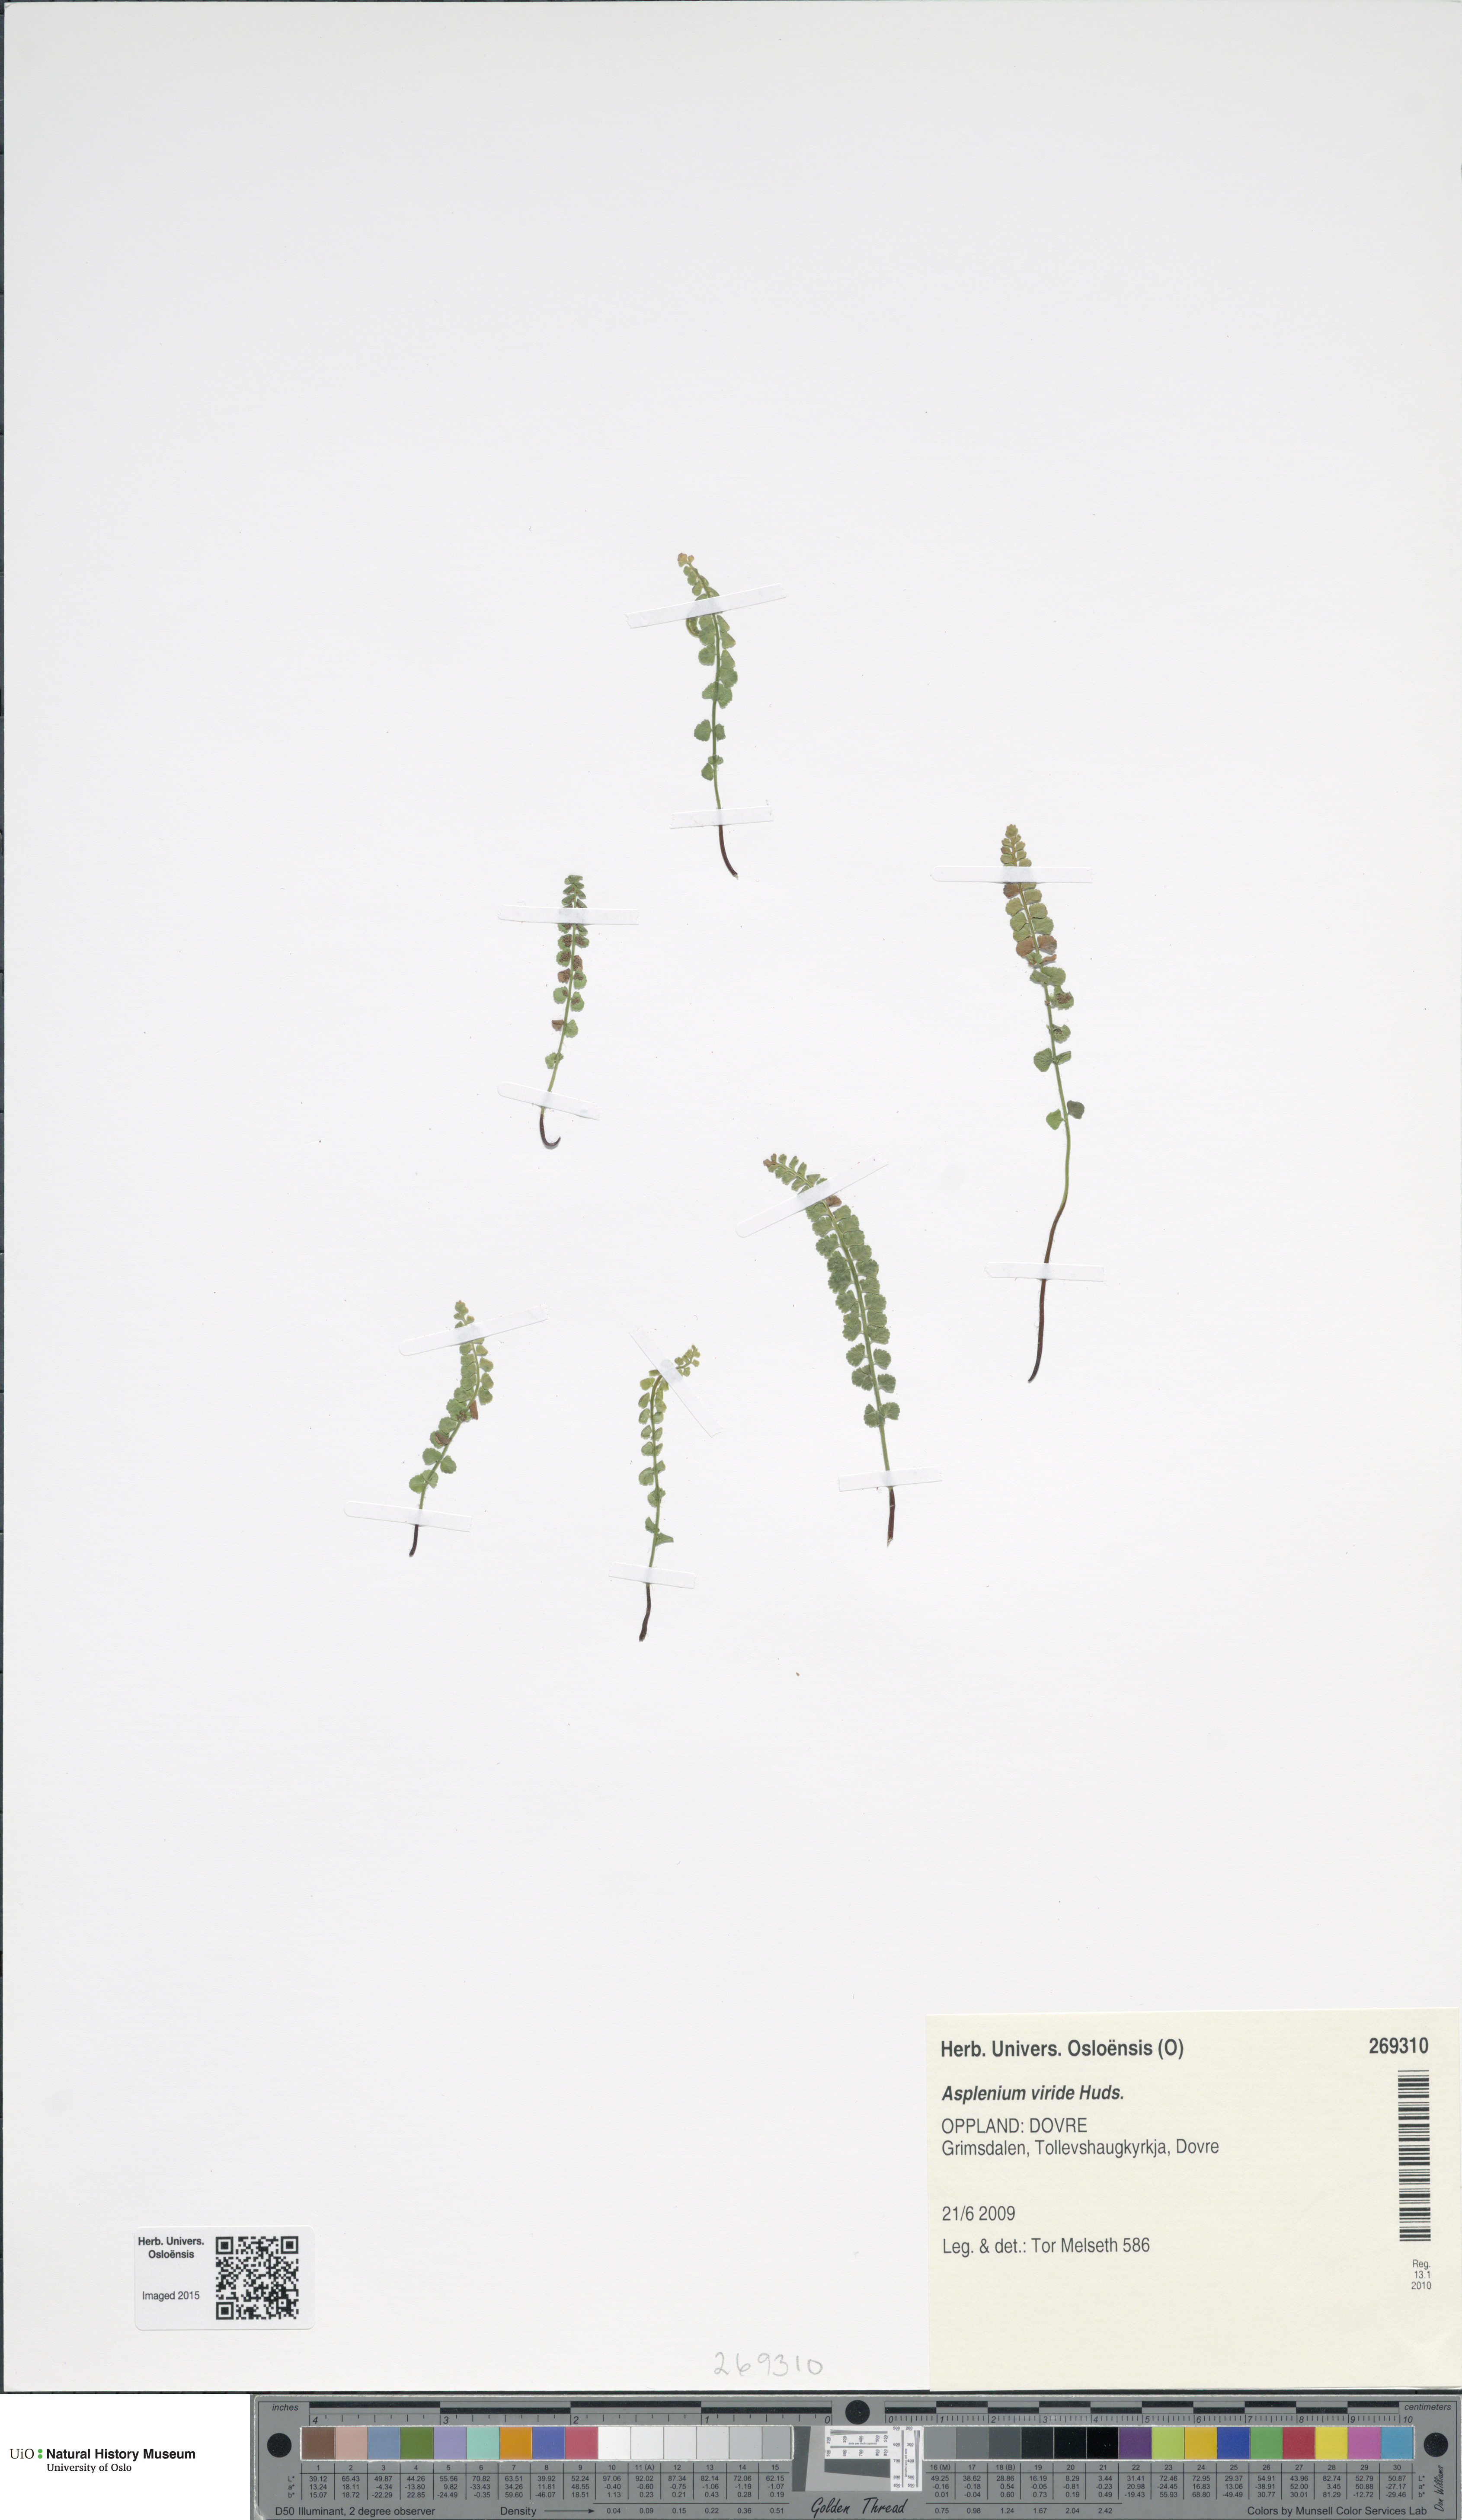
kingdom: Plantae
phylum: Tracheophyta
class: Polypodiopsida
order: Polypodiales
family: Aspleniaceae
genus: Asplenium
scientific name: Asplenium viride
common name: Green spleenwort
